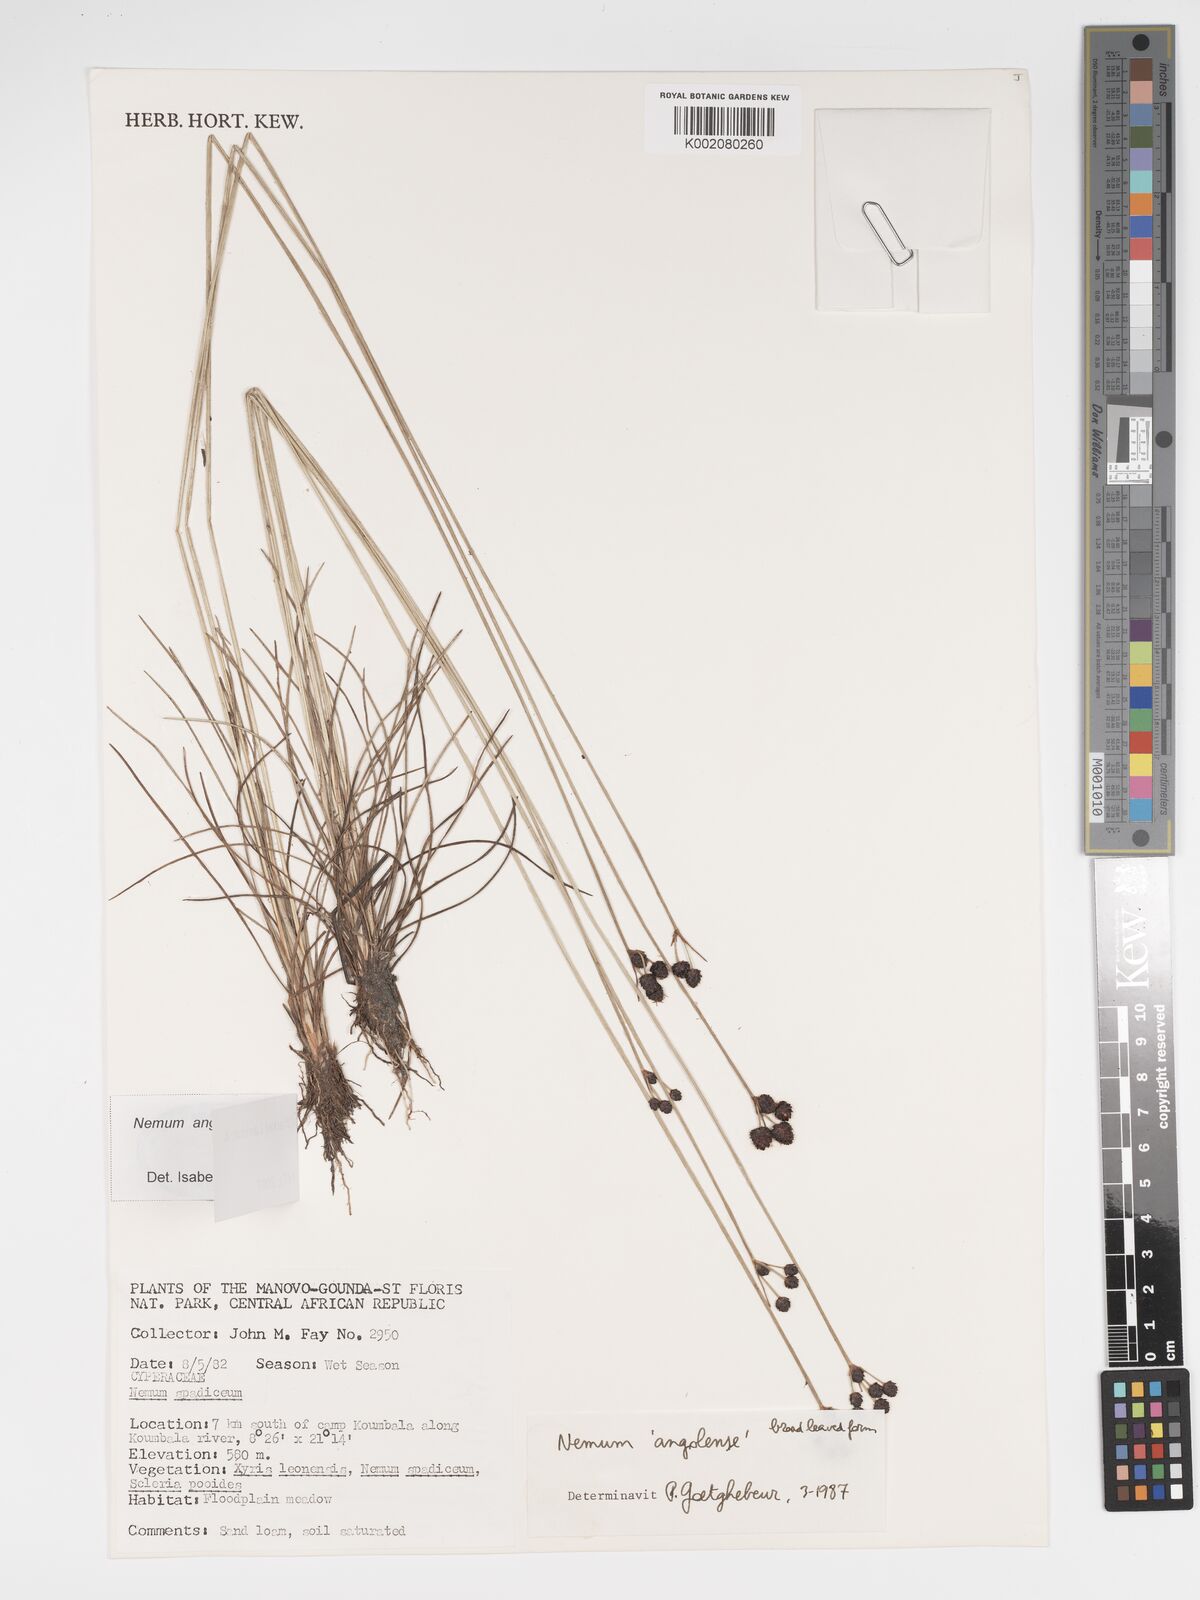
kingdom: Plantae
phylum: Tracheophyta
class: Liliopsida
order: Poales
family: Cyperaceae
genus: Bulbostylis
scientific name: Bulbostylis angolensis
